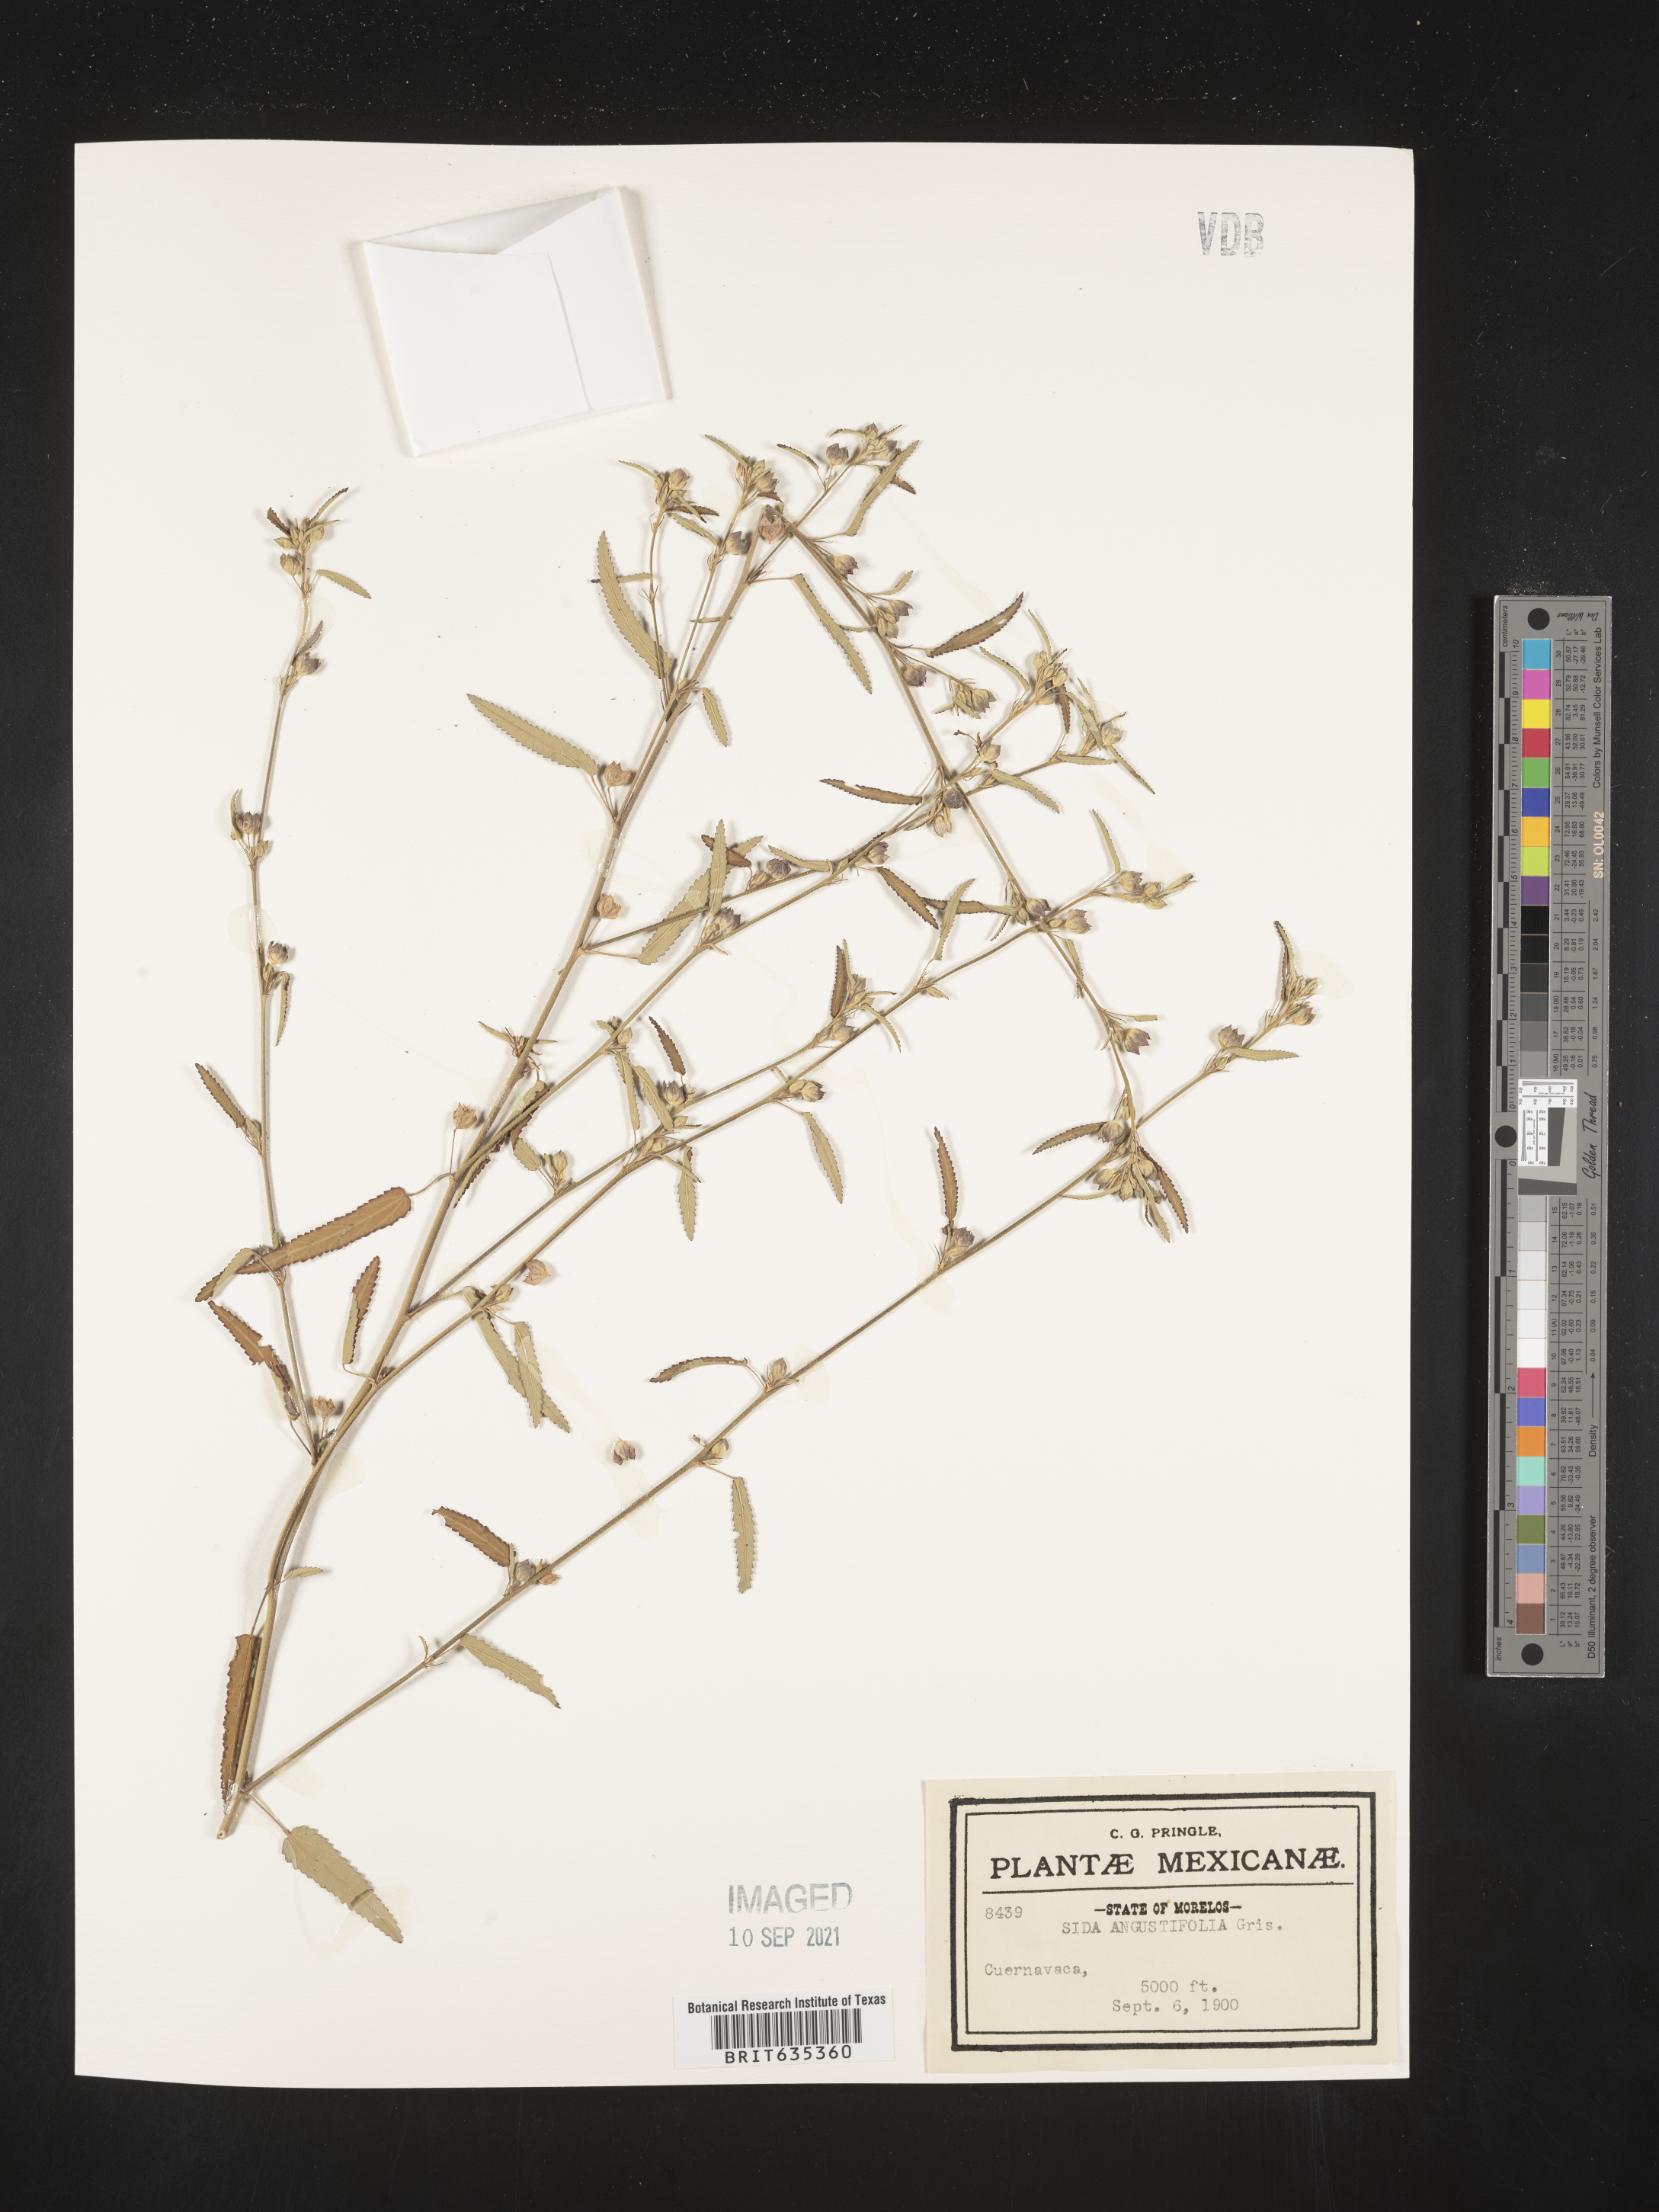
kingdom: Plantae
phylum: Tracheophyta
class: Magnoliopsida
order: Malvales
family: Malvaceae
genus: Sida
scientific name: Sida
